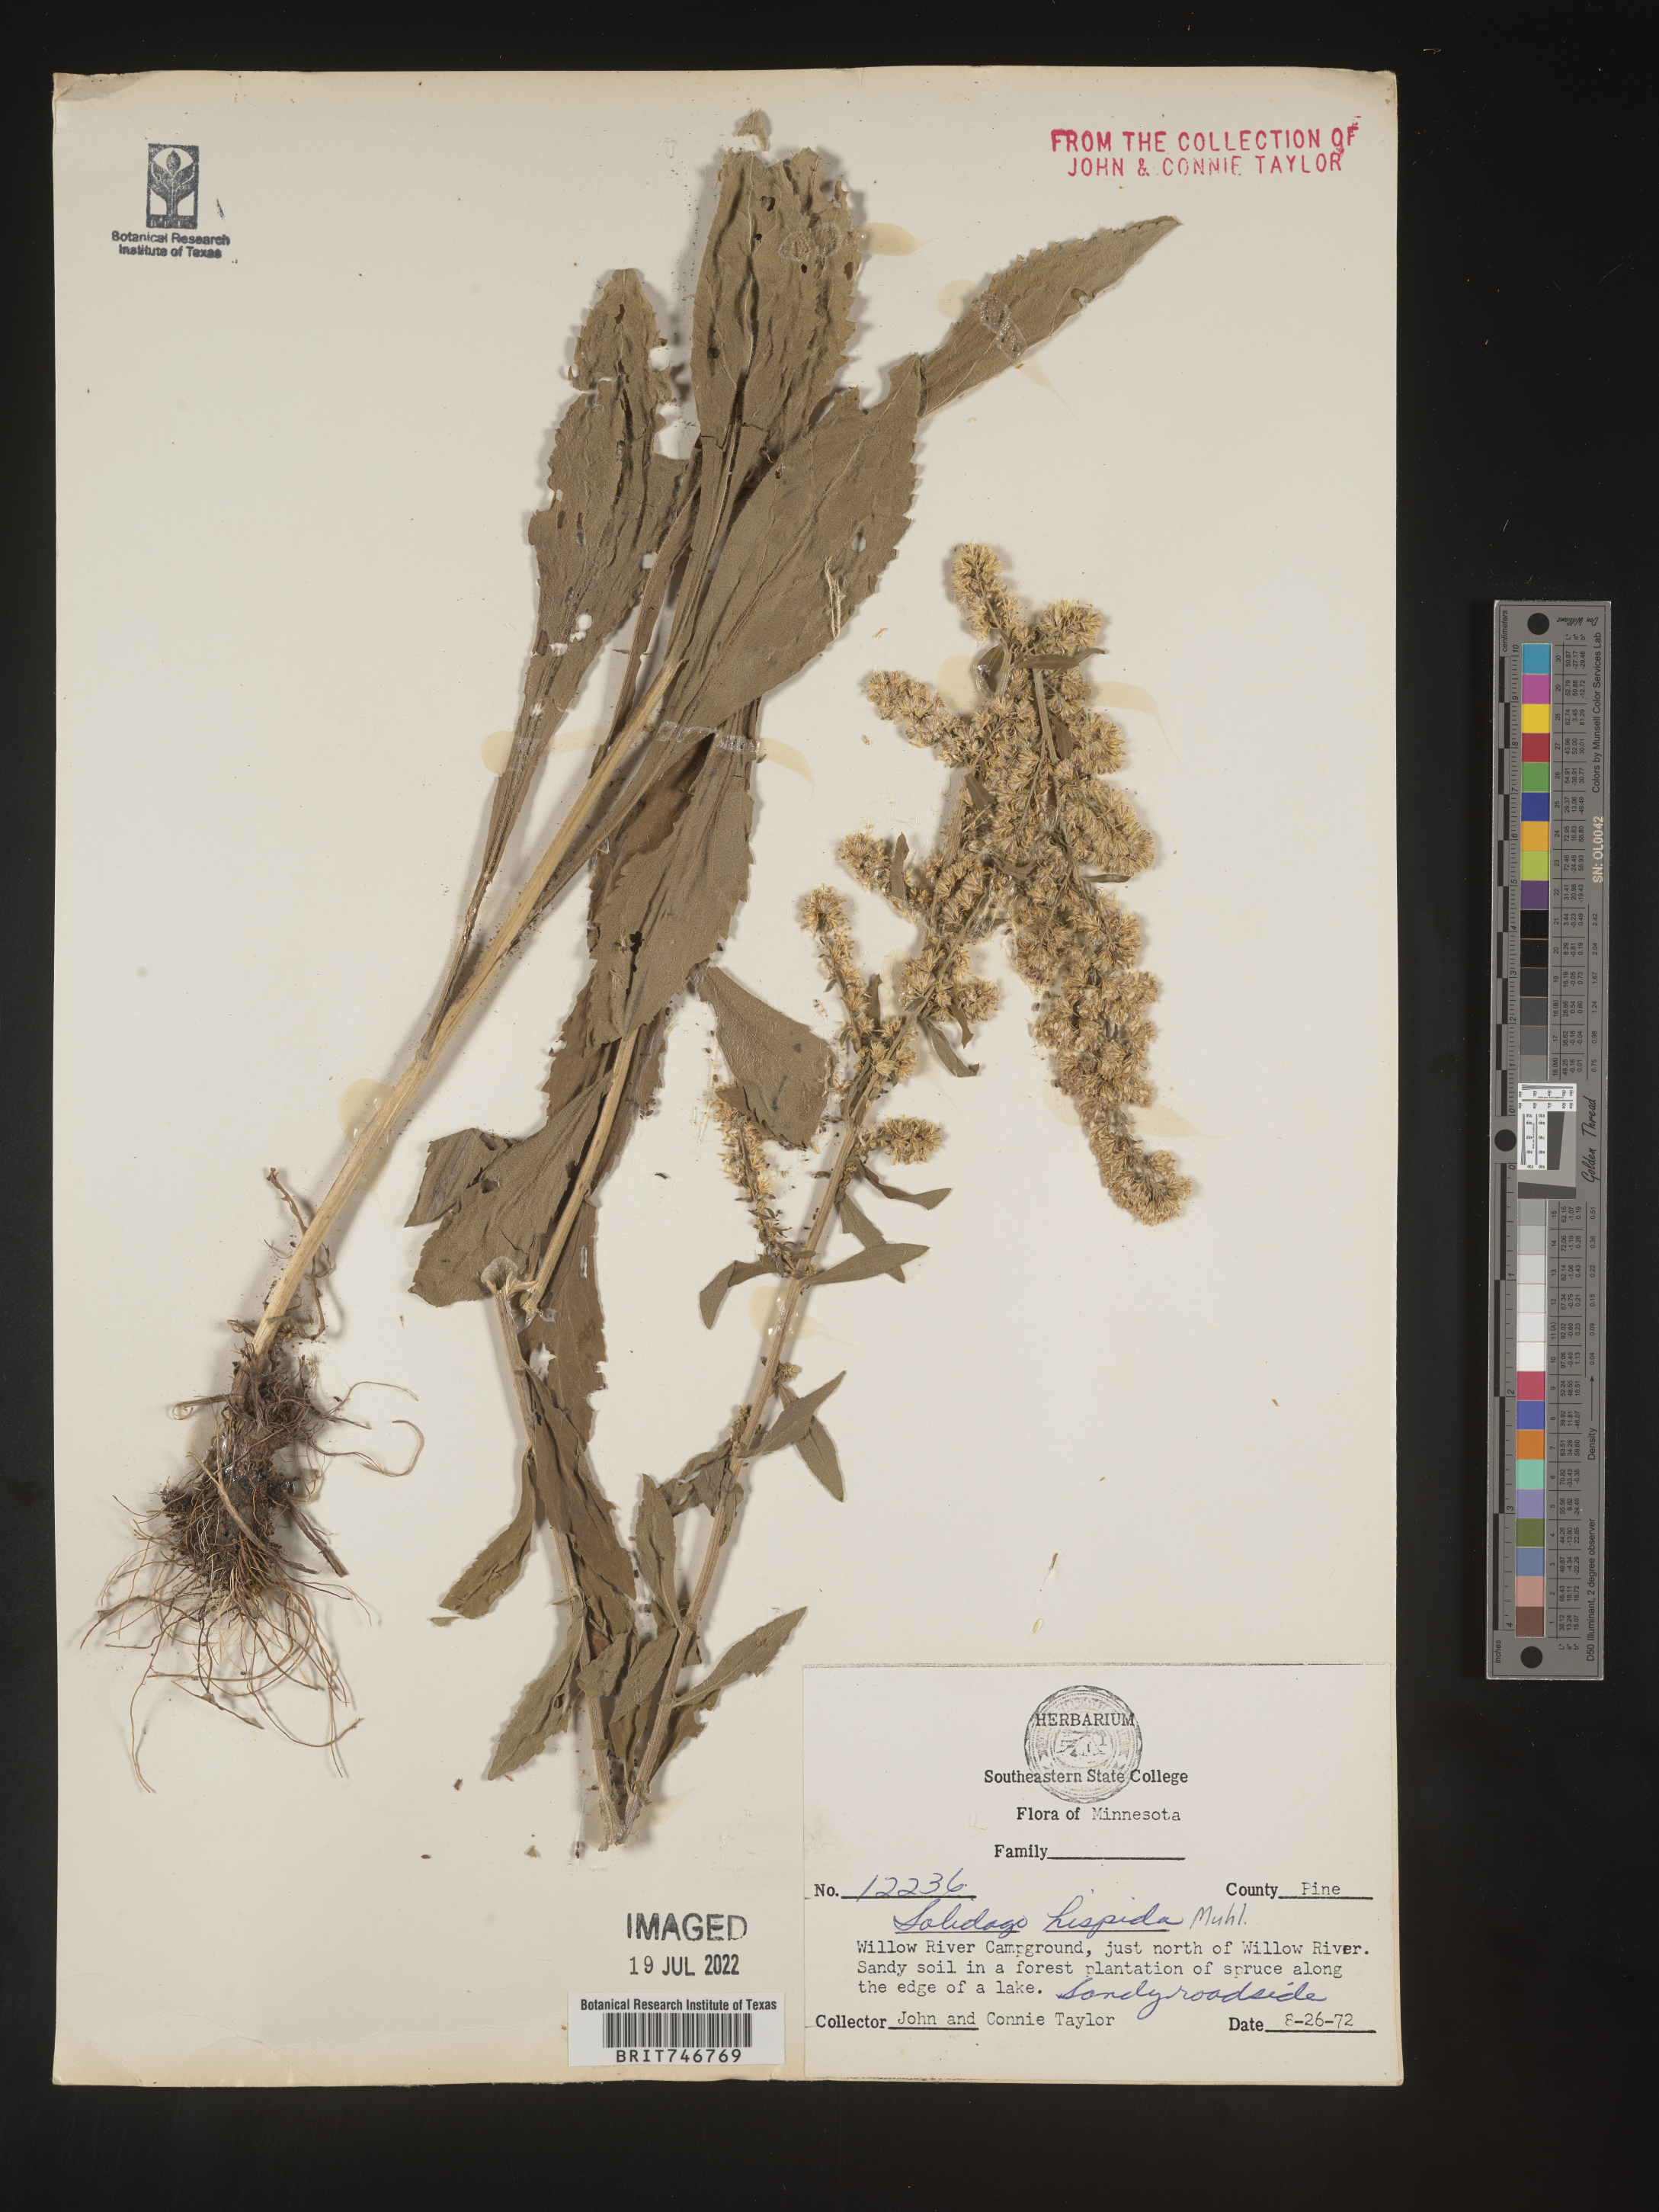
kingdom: Plantae
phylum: Tracheophyta
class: Magnoliopsida
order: Asterales
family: Asteraceae
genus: Solidago
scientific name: Solidago hispida
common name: Hairy goldenrod
